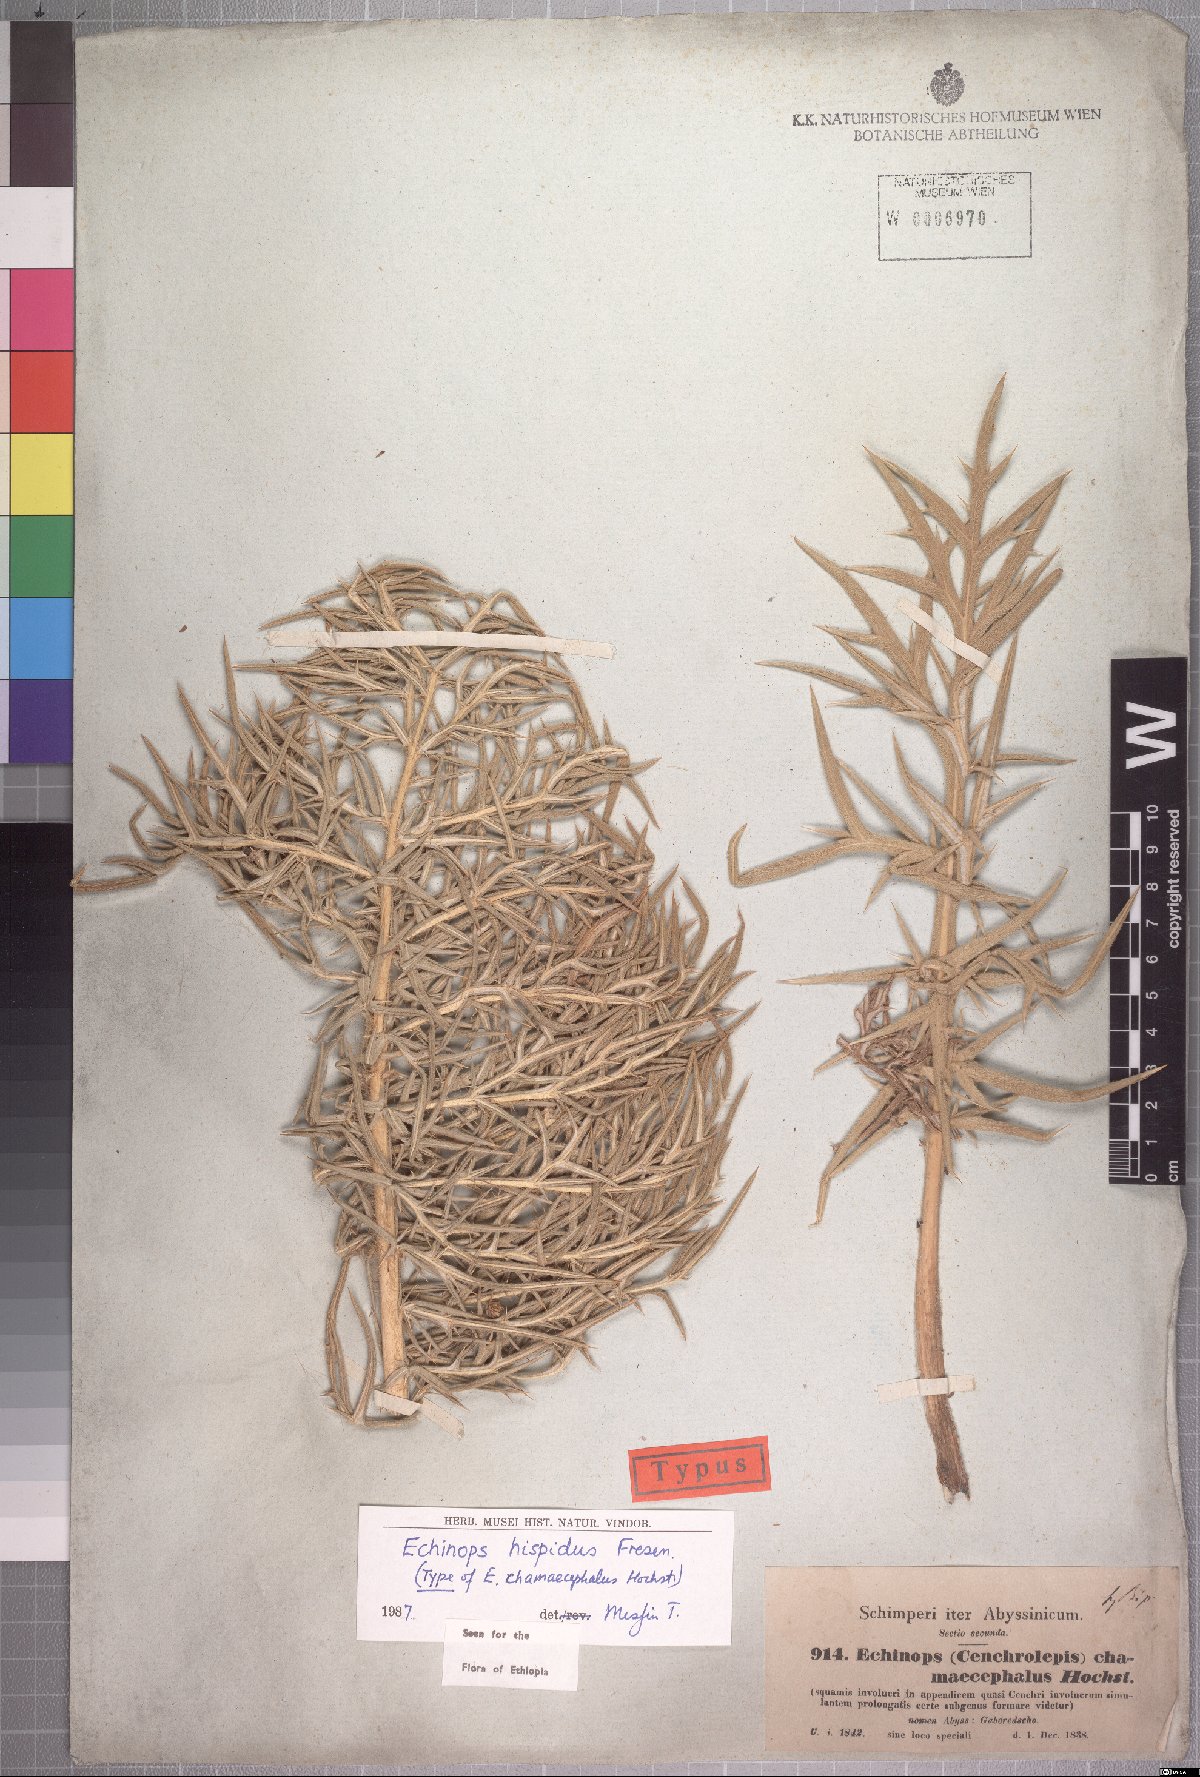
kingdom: Plantae
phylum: Tracheophyta
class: Magnoliopsida
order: Asterales
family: Asteraceae
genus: Echinops
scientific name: Echinops hispidus
